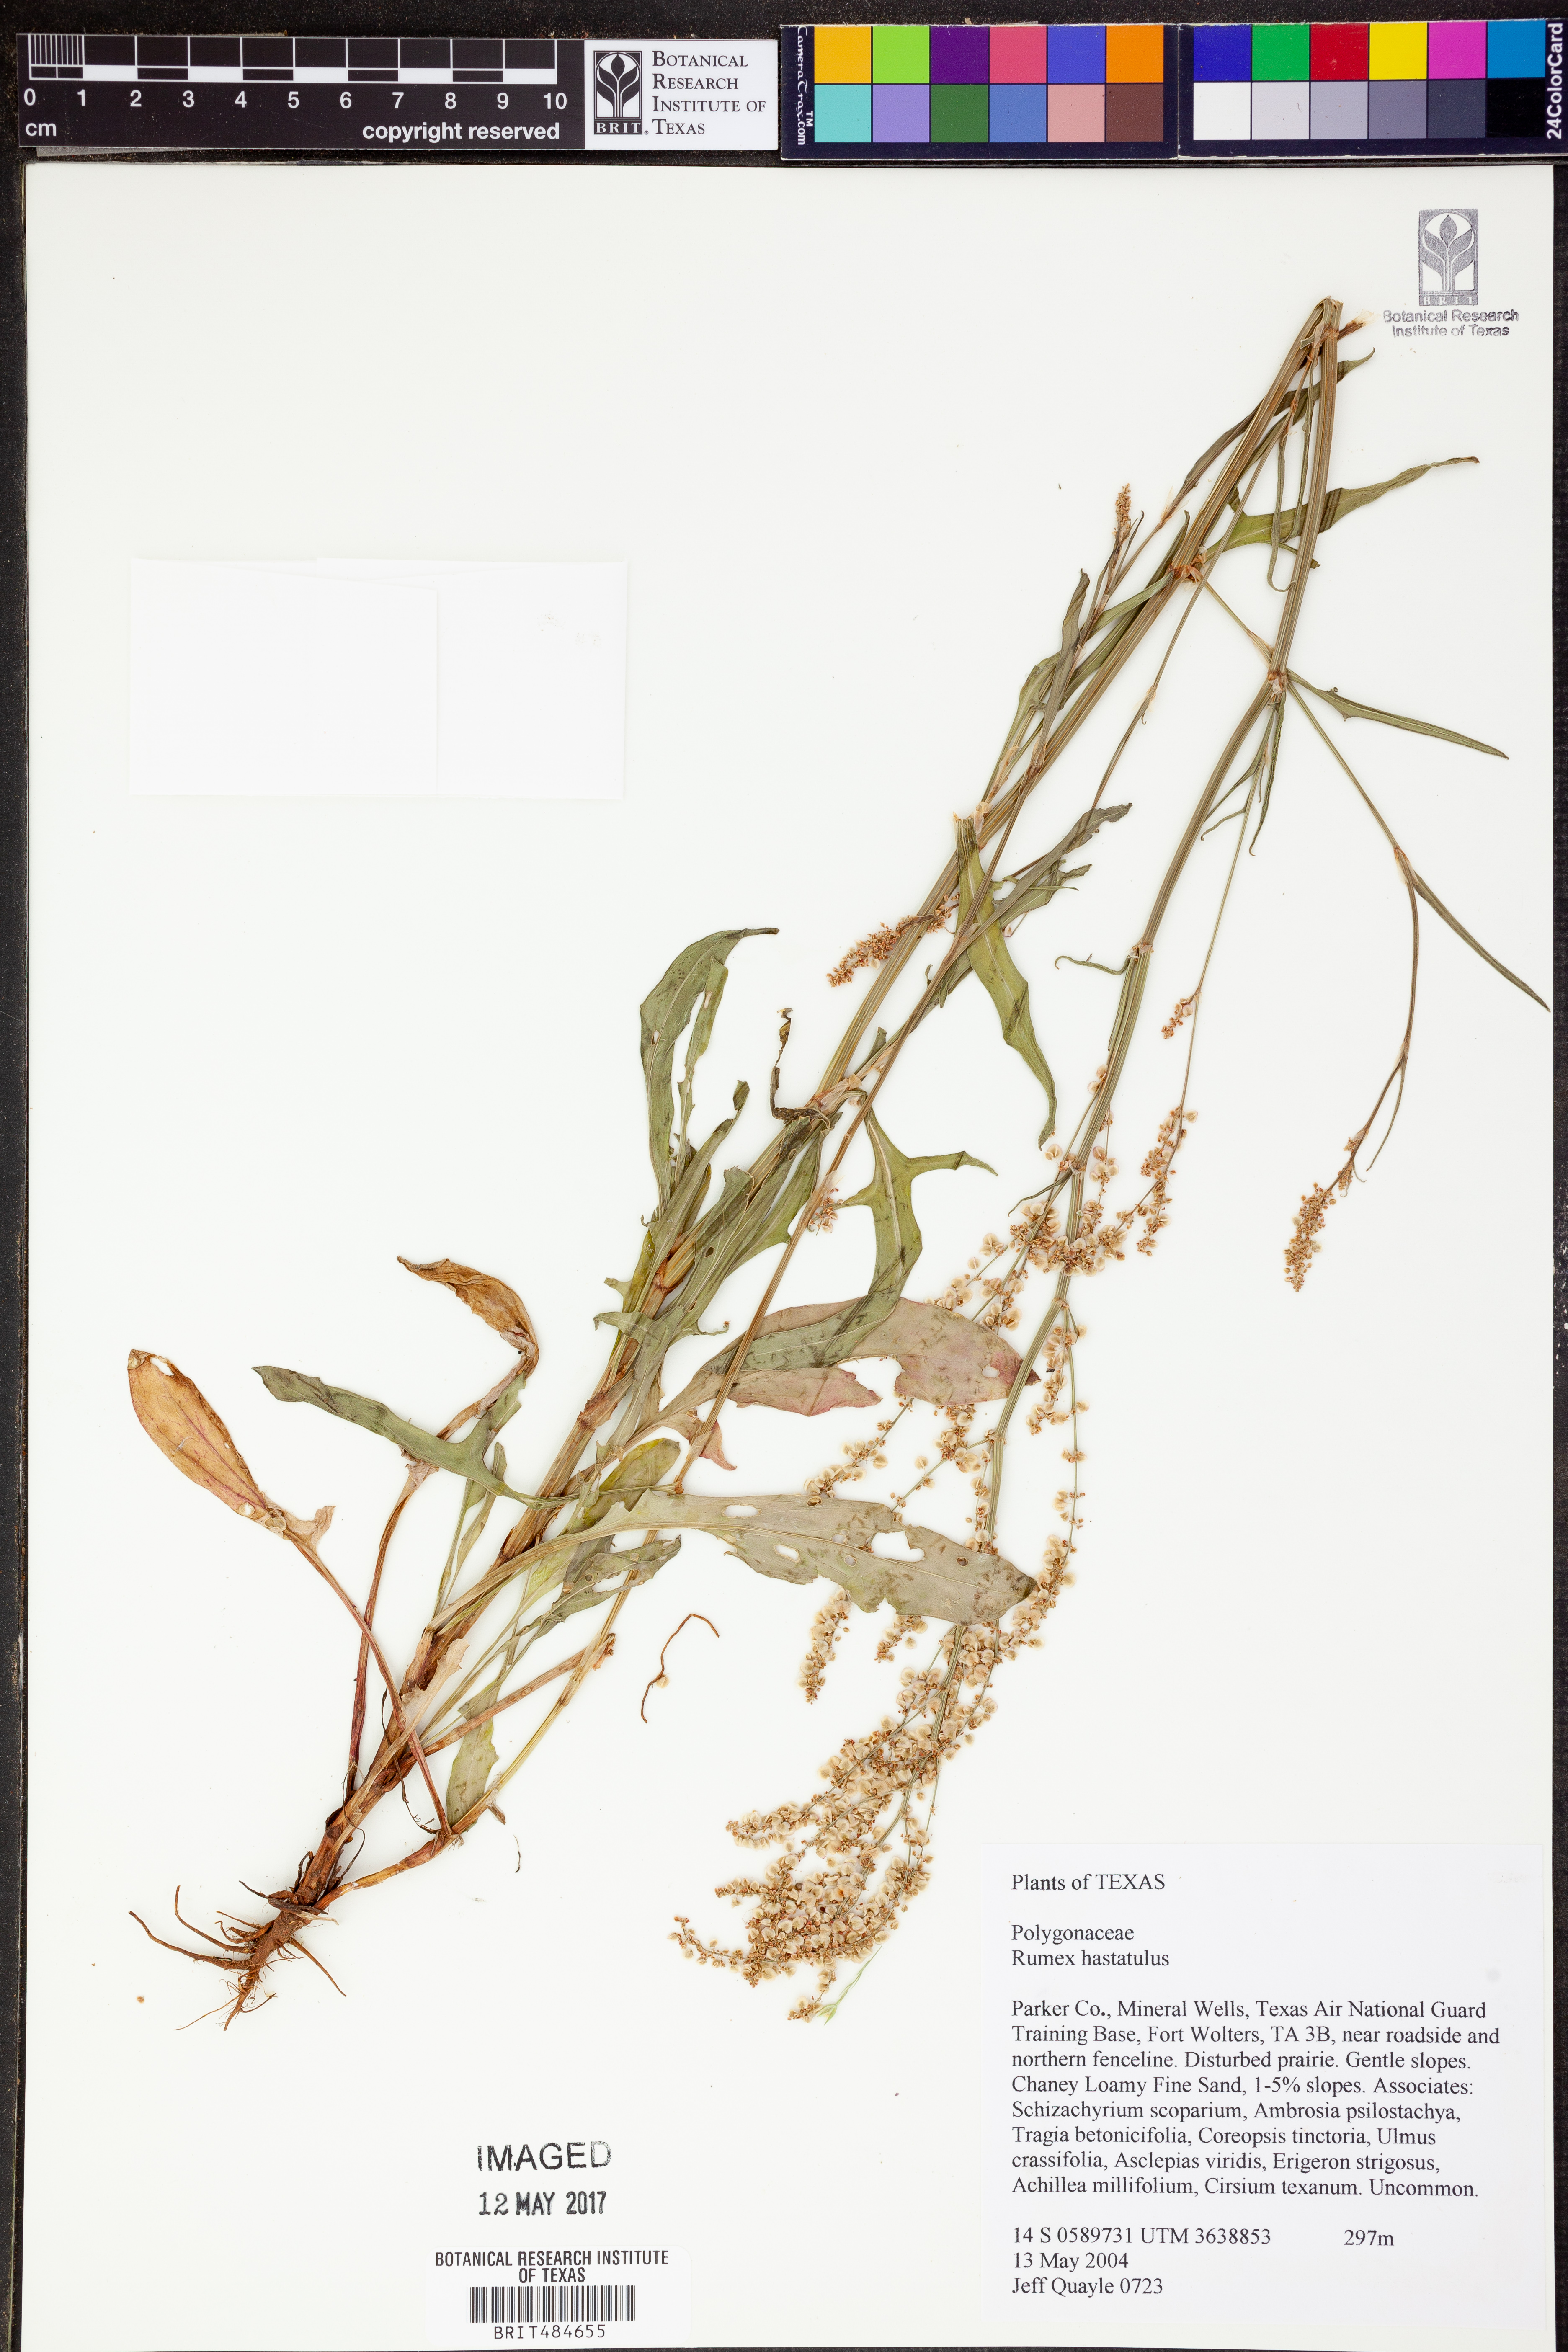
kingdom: Plantae
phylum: Tracheophyta
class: Magnoliopsida
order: Caryophyllales
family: Polygonaceae
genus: Rumex
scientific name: Rumex hastatulus
